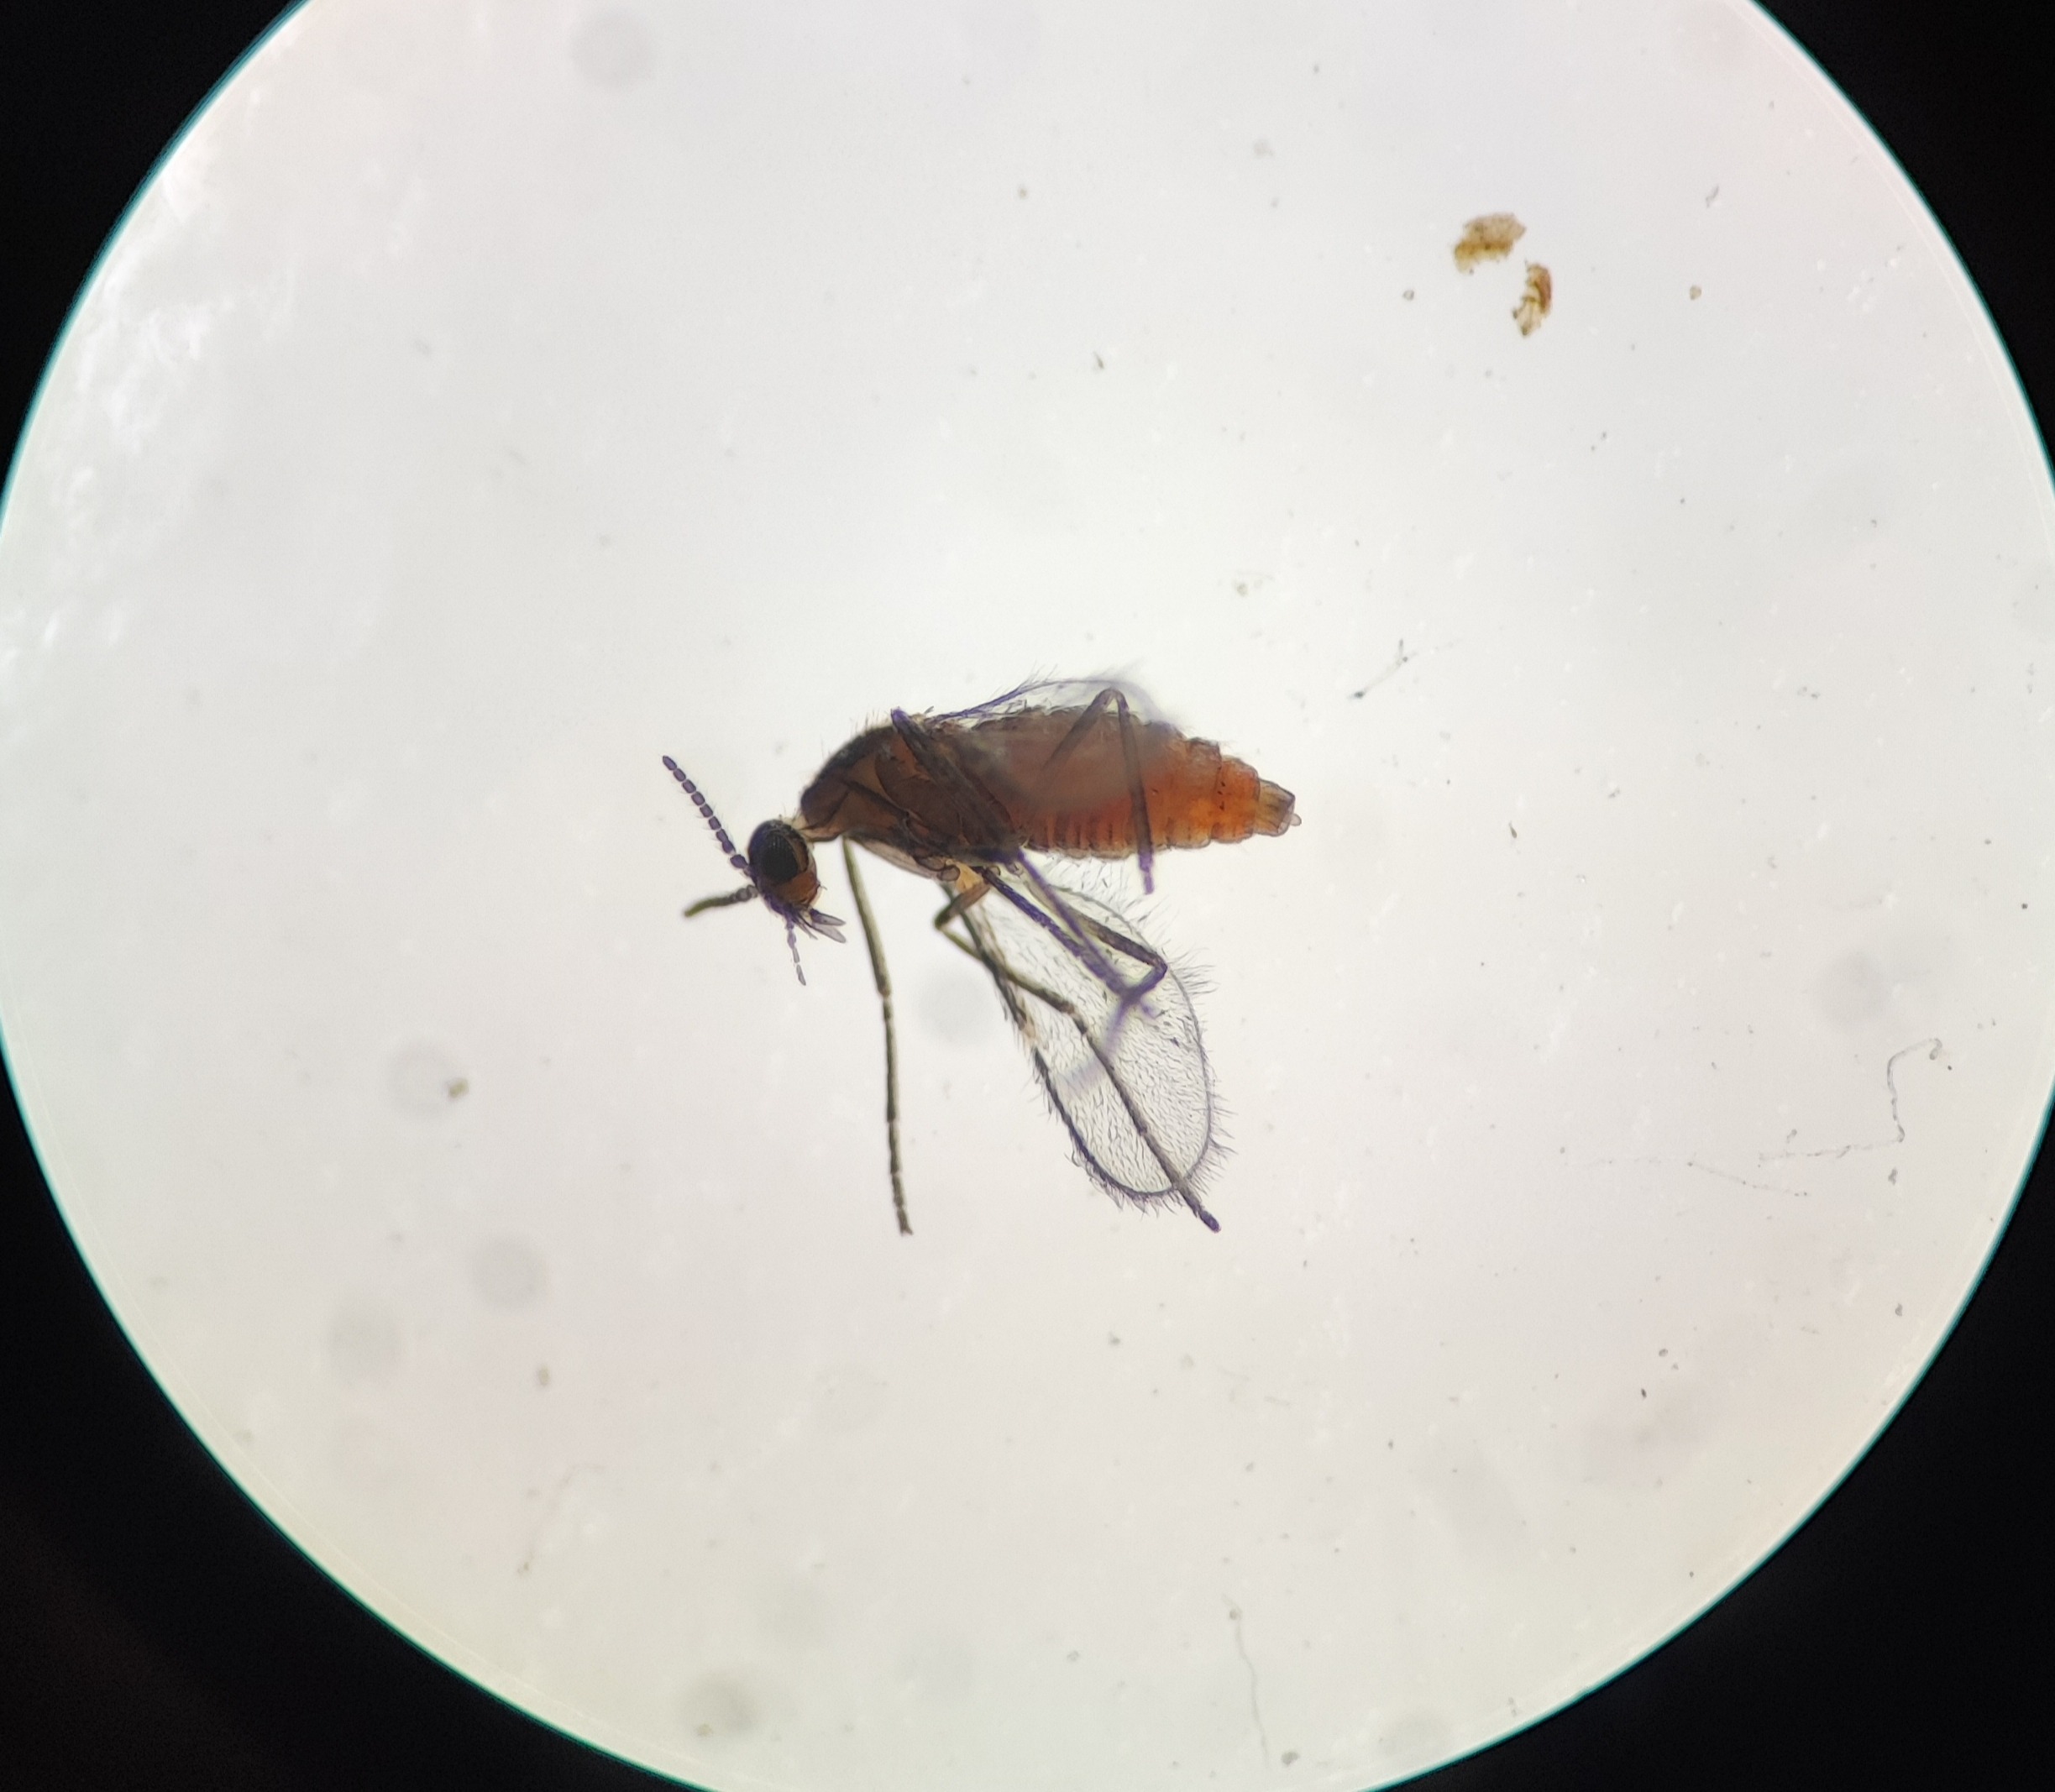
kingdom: Animalia
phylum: Arthropoda
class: Insecta
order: Diptera
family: Cecidomyiidae
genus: Ozirhincus
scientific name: Ozirhincus millefolii
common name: Røllikefrøgalmyg
